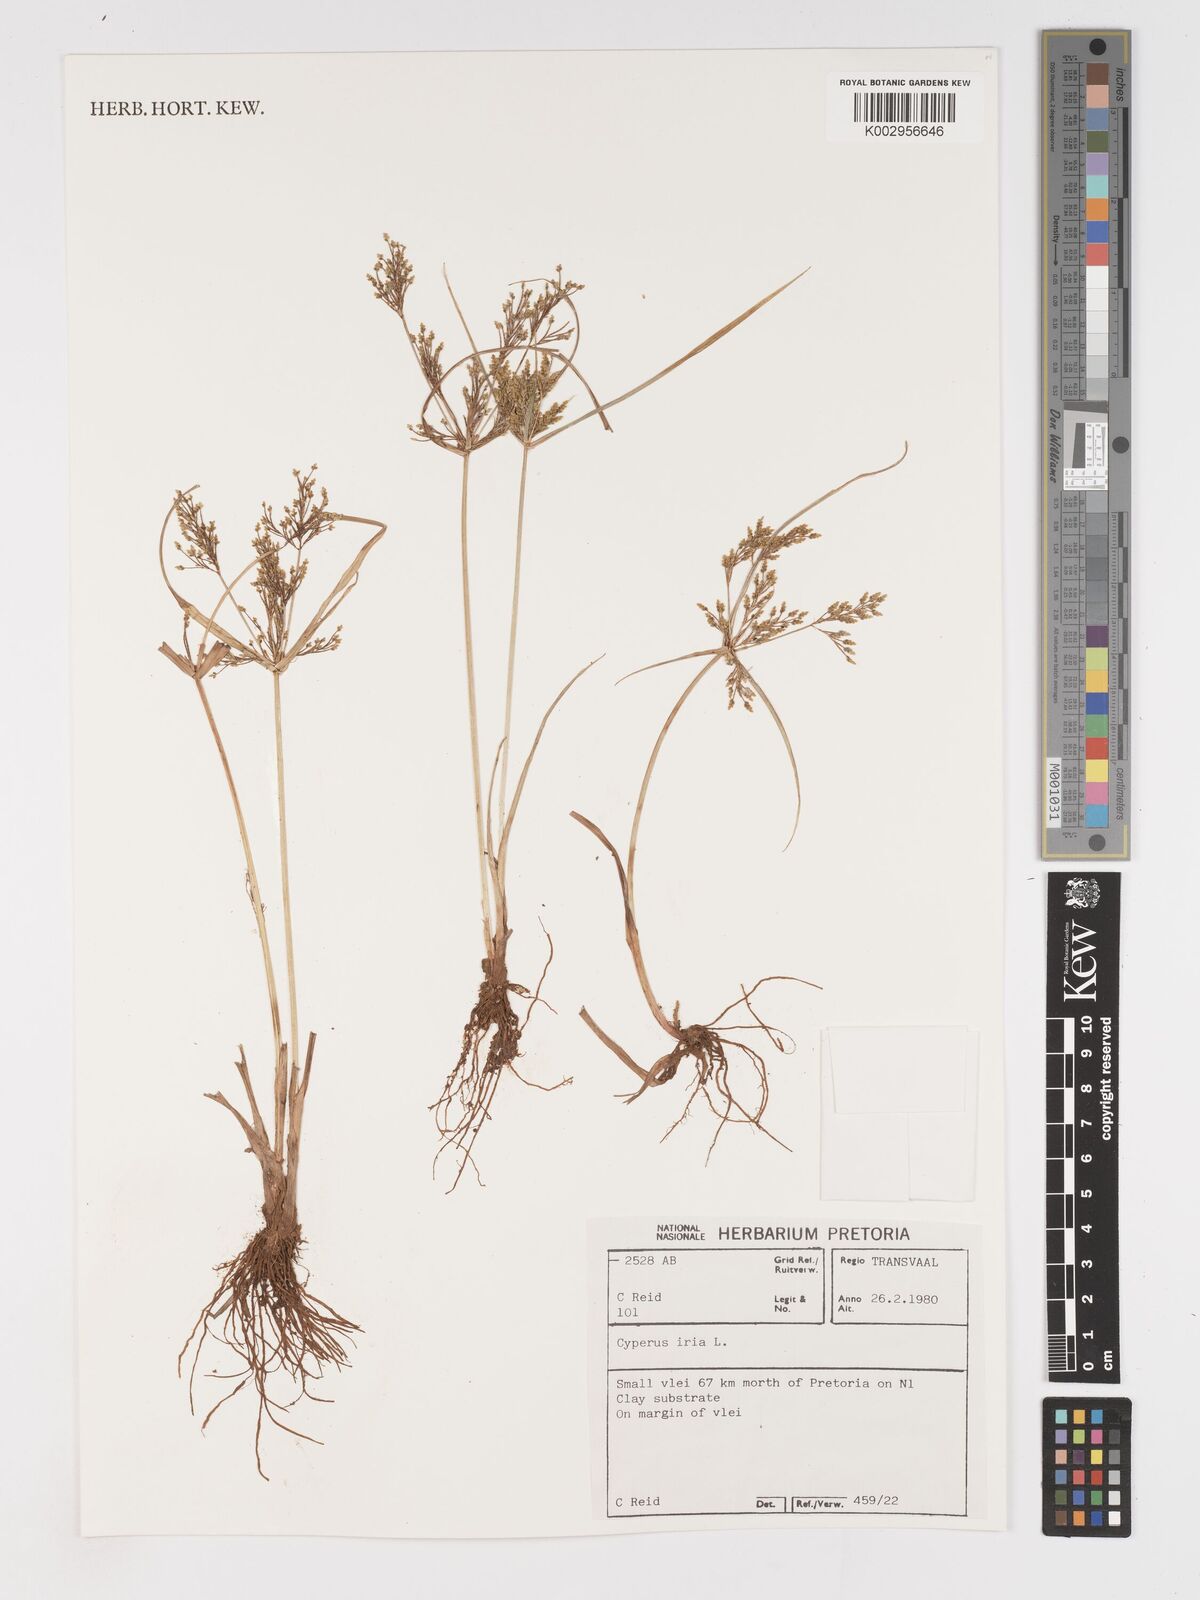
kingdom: Plantae
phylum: Tracheophyta
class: Liliopsida
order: Poales
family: Cyperaceae
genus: Cyperus
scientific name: Cyperus iria
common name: Ricefield flatsedge
